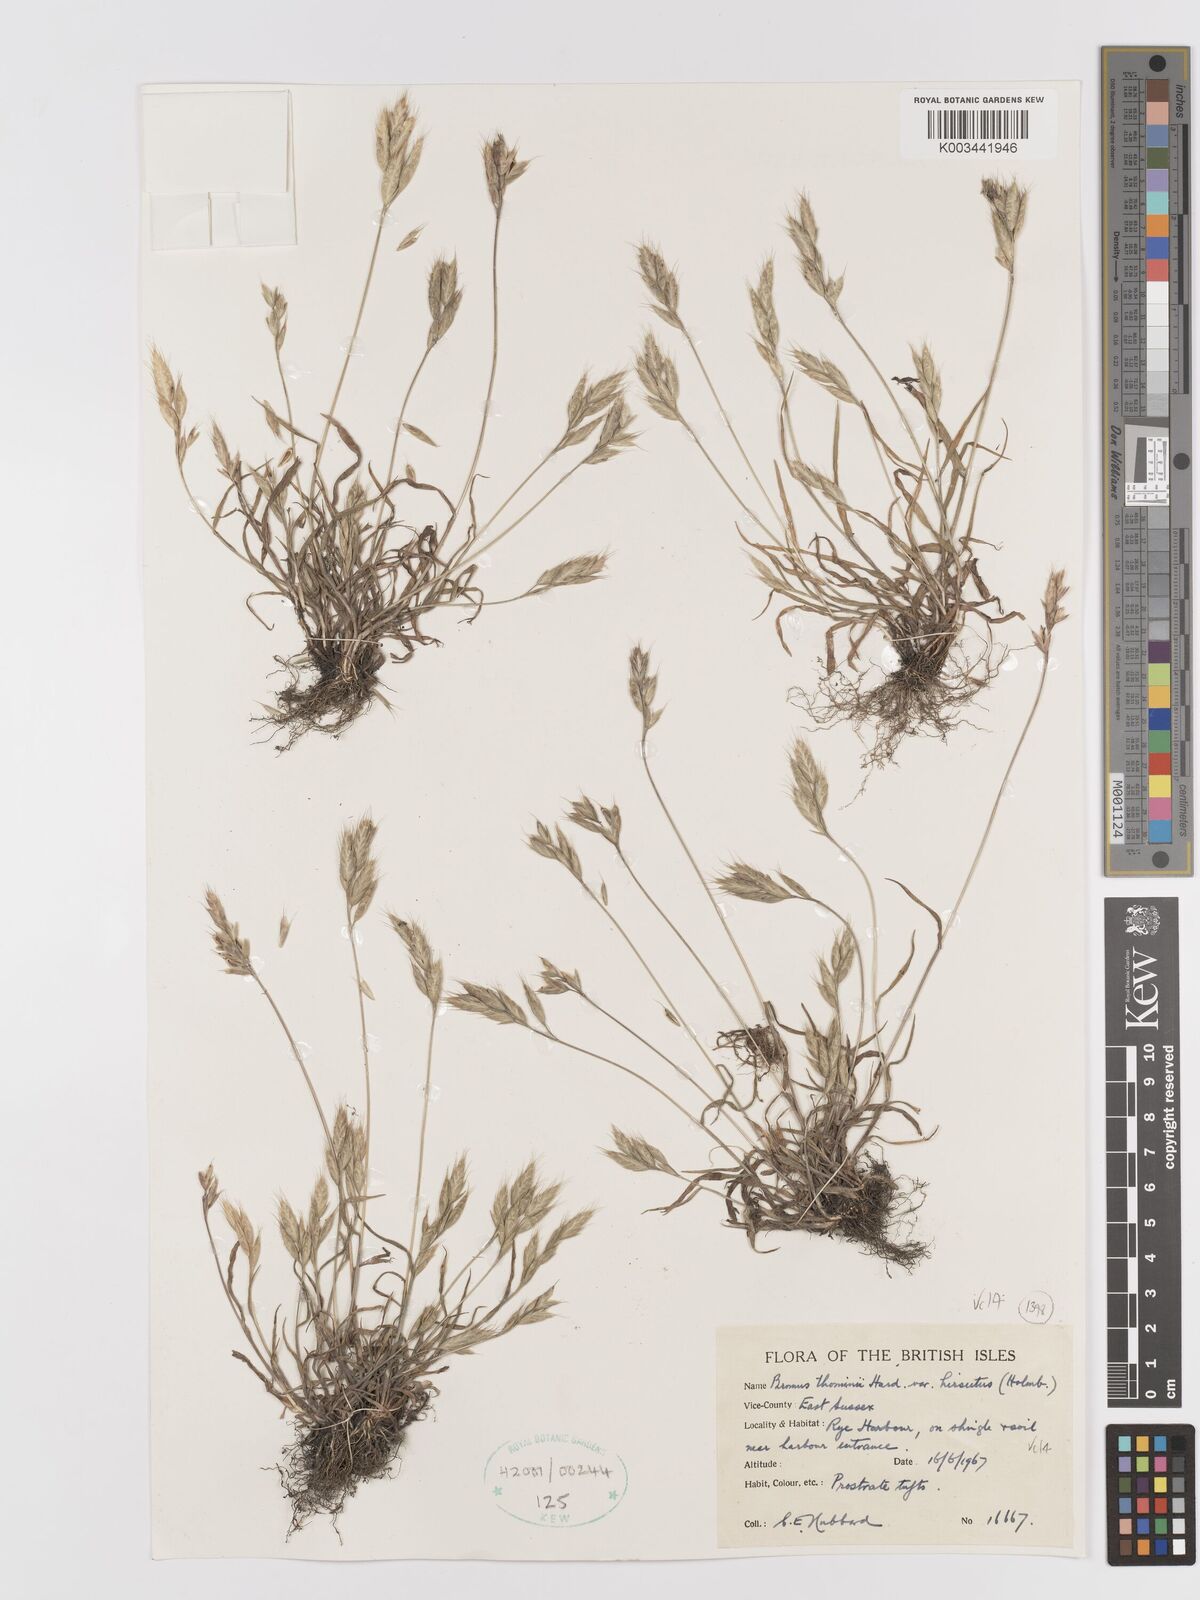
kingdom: Plantae
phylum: Tracheophyta
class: Liliopsida
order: Poales
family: Poaceae
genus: Bromus
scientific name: Bromus hordeaceus
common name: Soft brome
